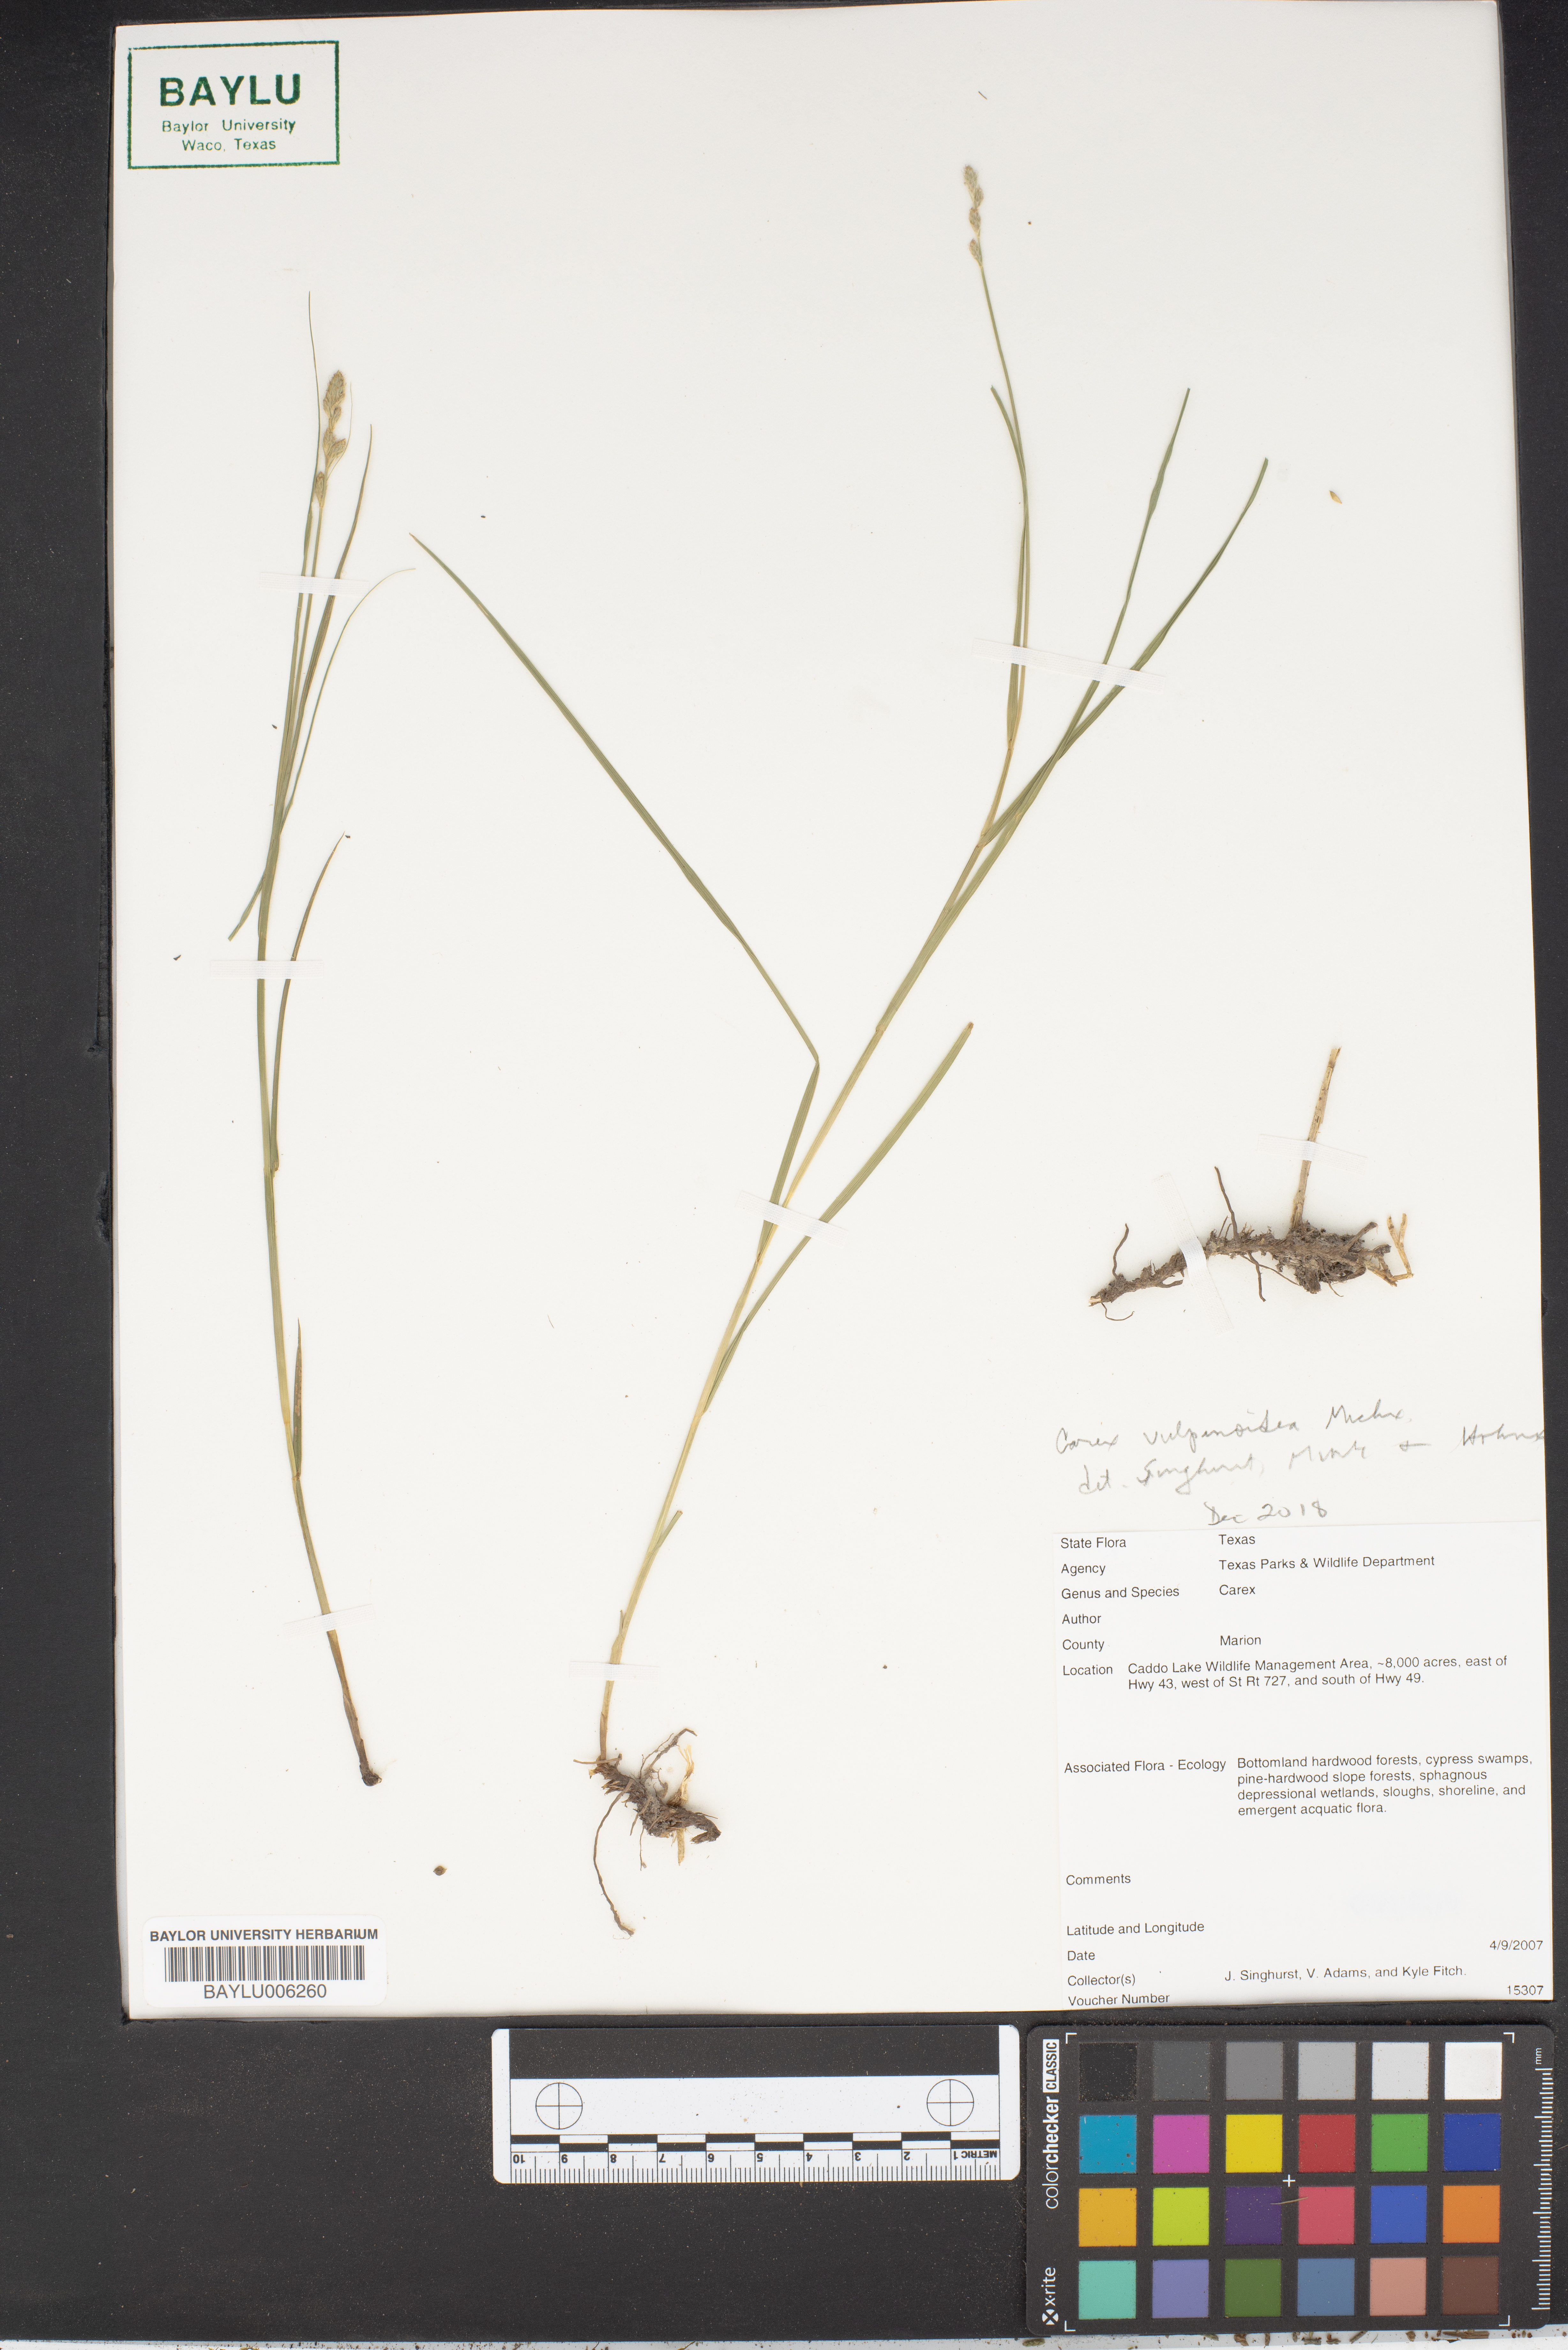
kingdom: Plantae
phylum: Tracheophyta
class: Liliopsida
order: Poales
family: Cyperaceae
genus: Carex
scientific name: Carex
